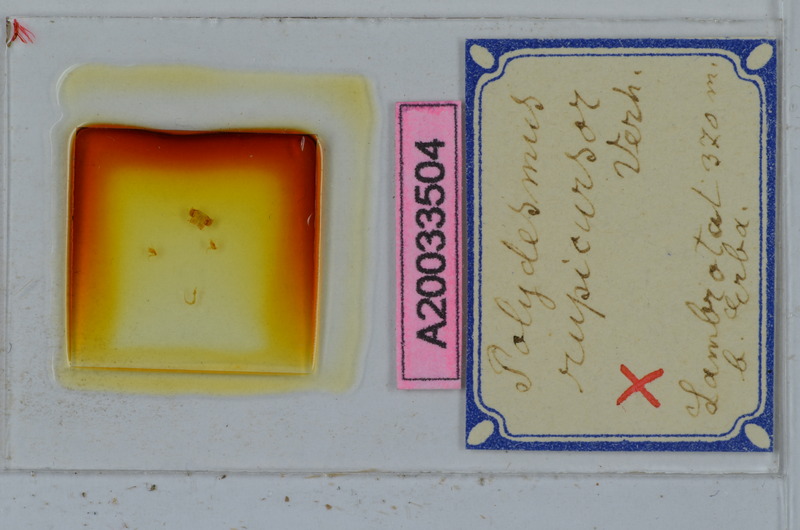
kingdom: Animalia
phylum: Arthropoda
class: Diplopoda
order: Polydesmida
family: Polydesmidae
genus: Polydesmus
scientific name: Polydesmus rupicursor
